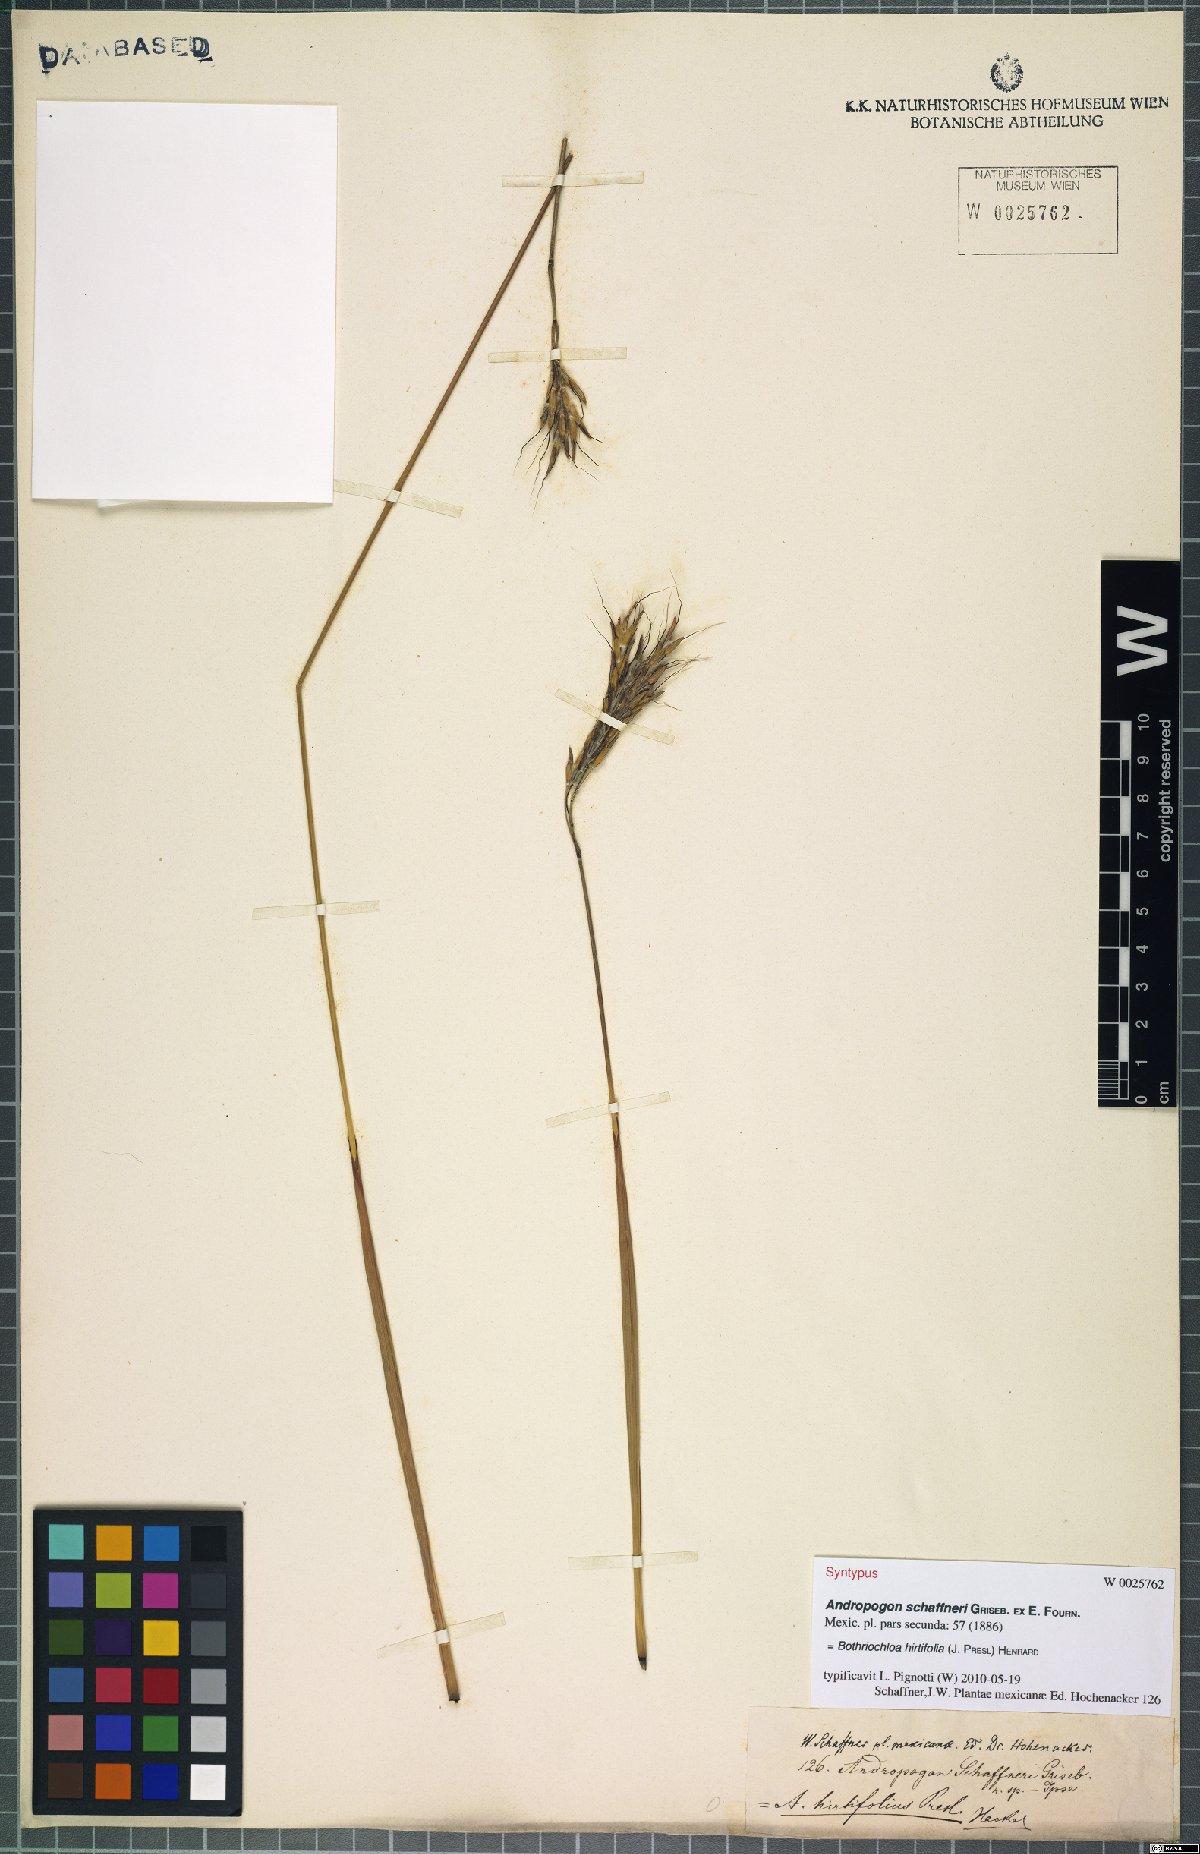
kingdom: Plantae
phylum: Tracheophyta
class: Liliopsida
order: Poales
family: Poaceae
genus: Bothriochloa
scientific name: Bothriochloa hirtifolia
